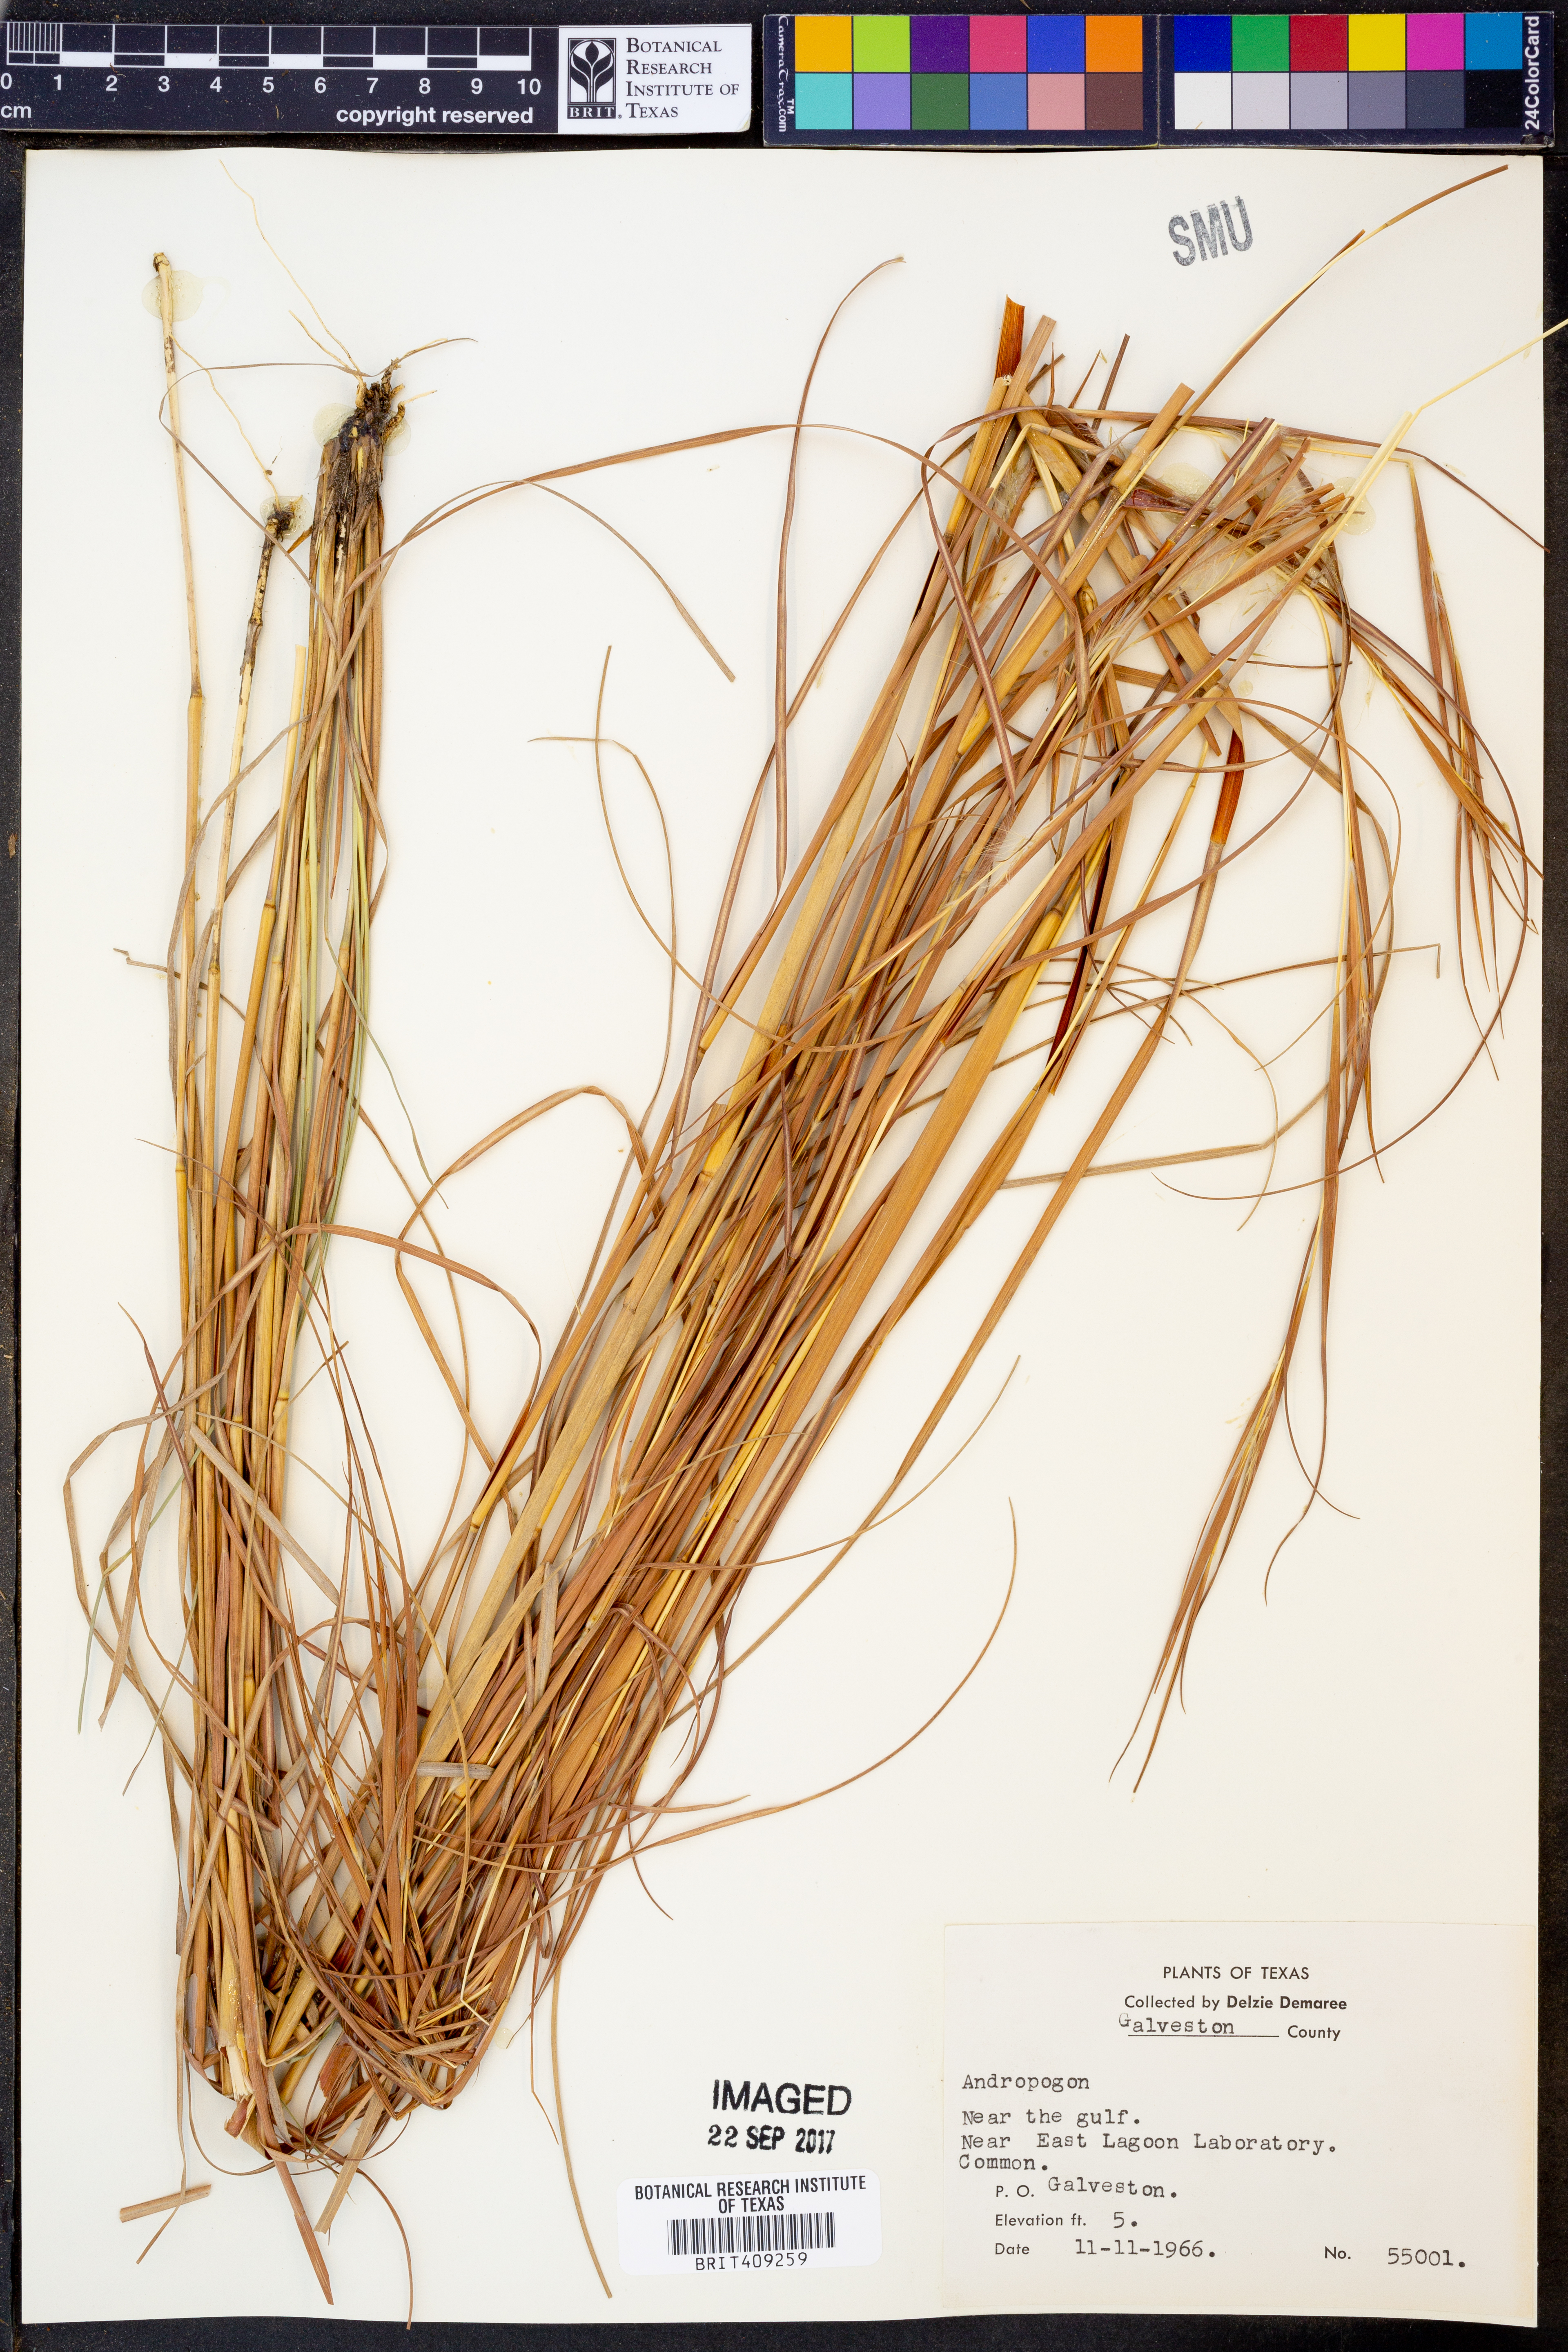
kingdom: Plantae
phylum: Tracheophyta
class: Liliopsida
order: Poales
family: Poaceae
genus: Andropogon
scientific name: Andropogon
